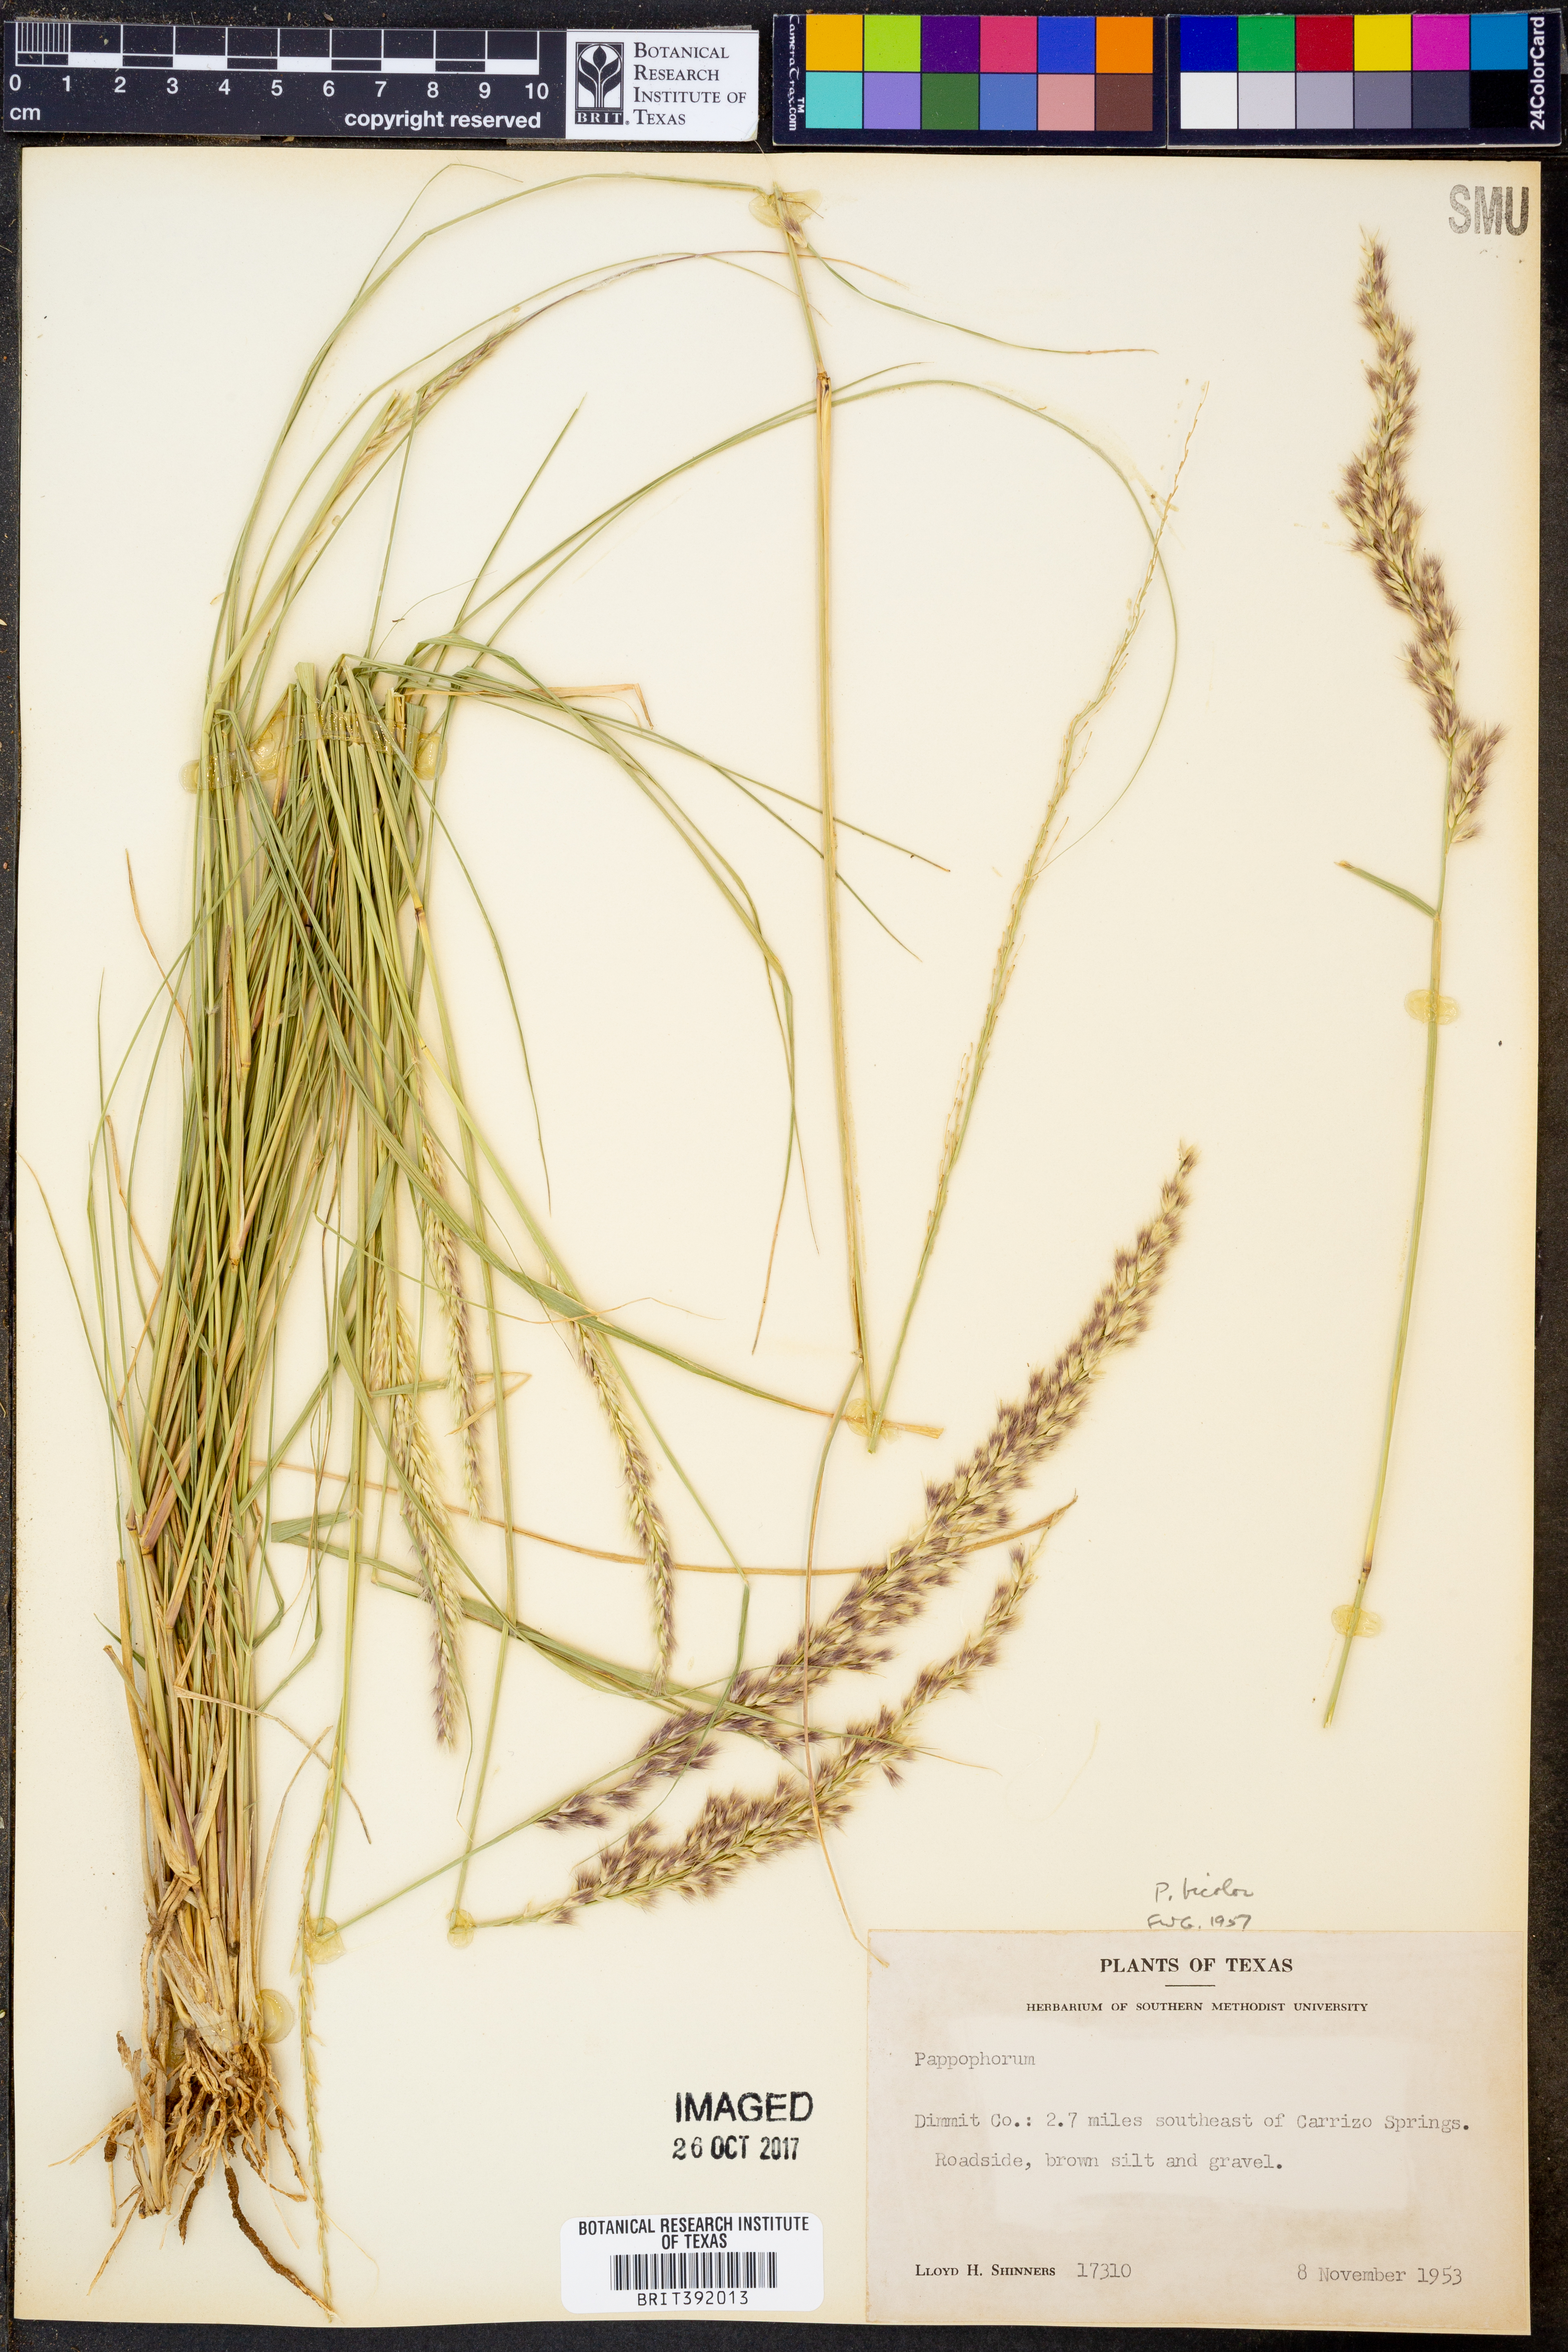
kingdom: Plantae
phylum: Tracheophyta
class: Liliopsida
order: Poales
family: Poaceae
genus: Pappophorum
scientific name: Pappophorum bicolor
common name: Pink pappus grass
